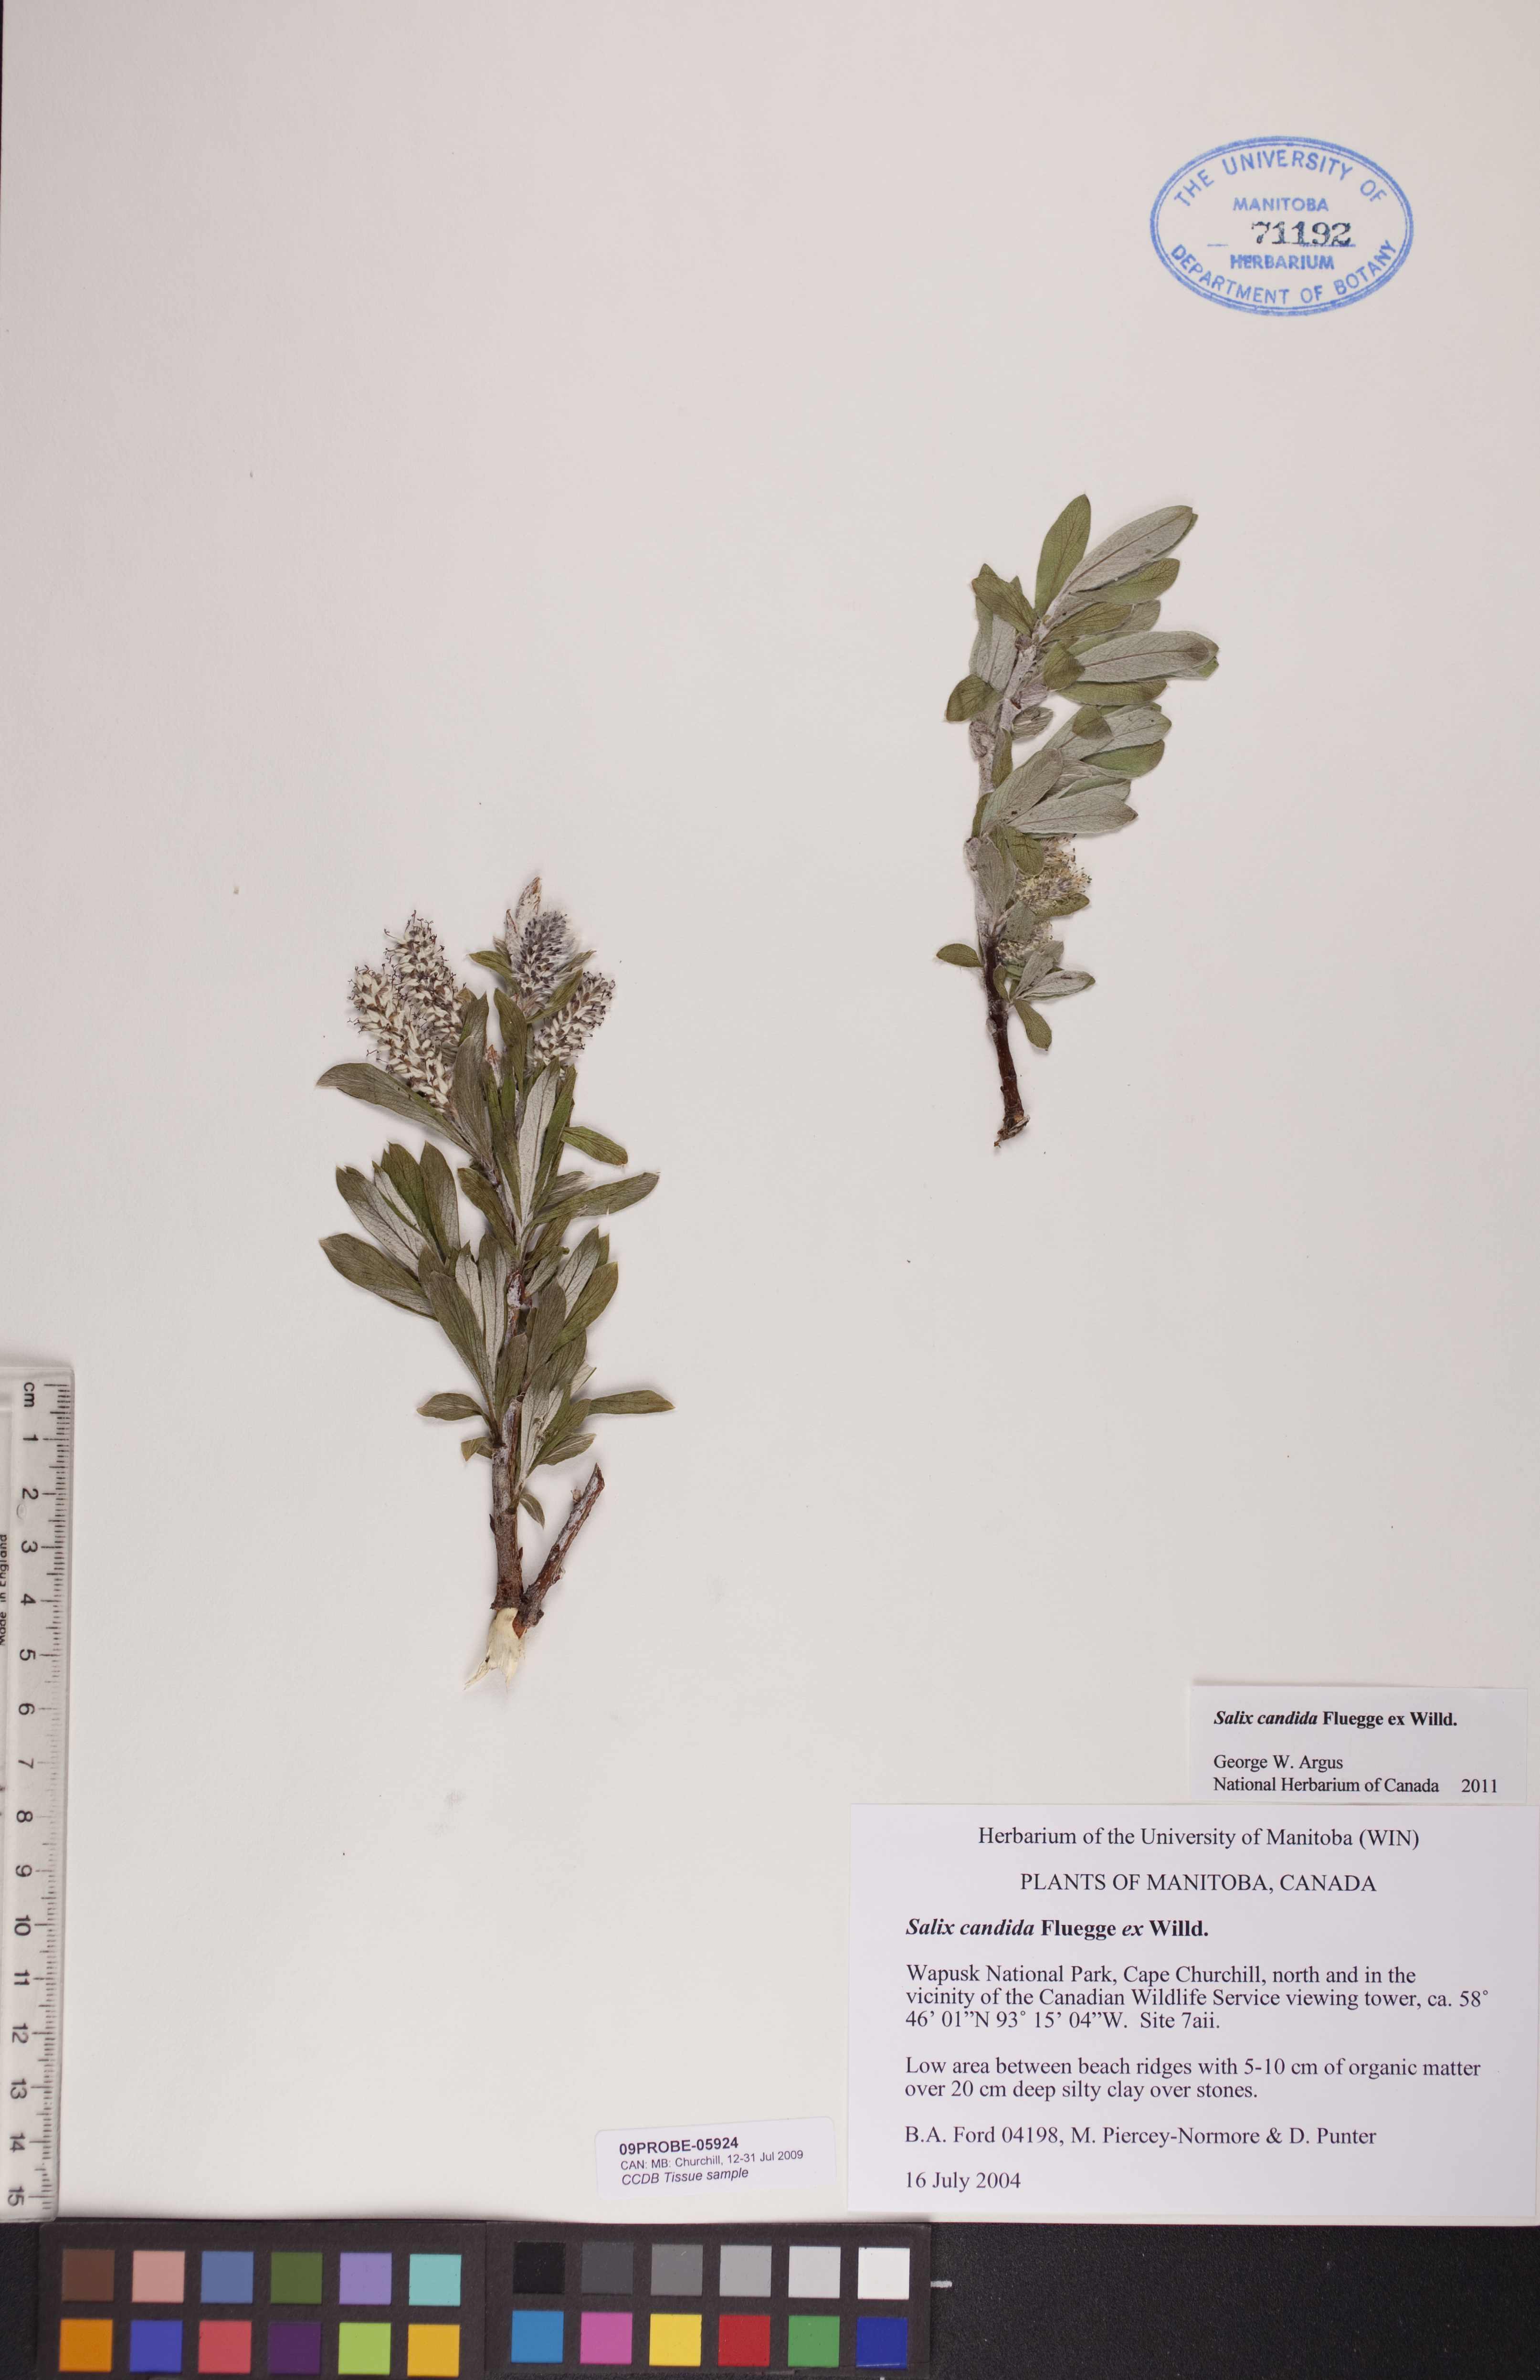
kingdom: Plantae
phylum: Tracheophyta
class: Magnoliopsida
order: Malpighiales
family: Salicaceae
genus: Salix
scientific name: Salix candida
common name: Hoary willow
